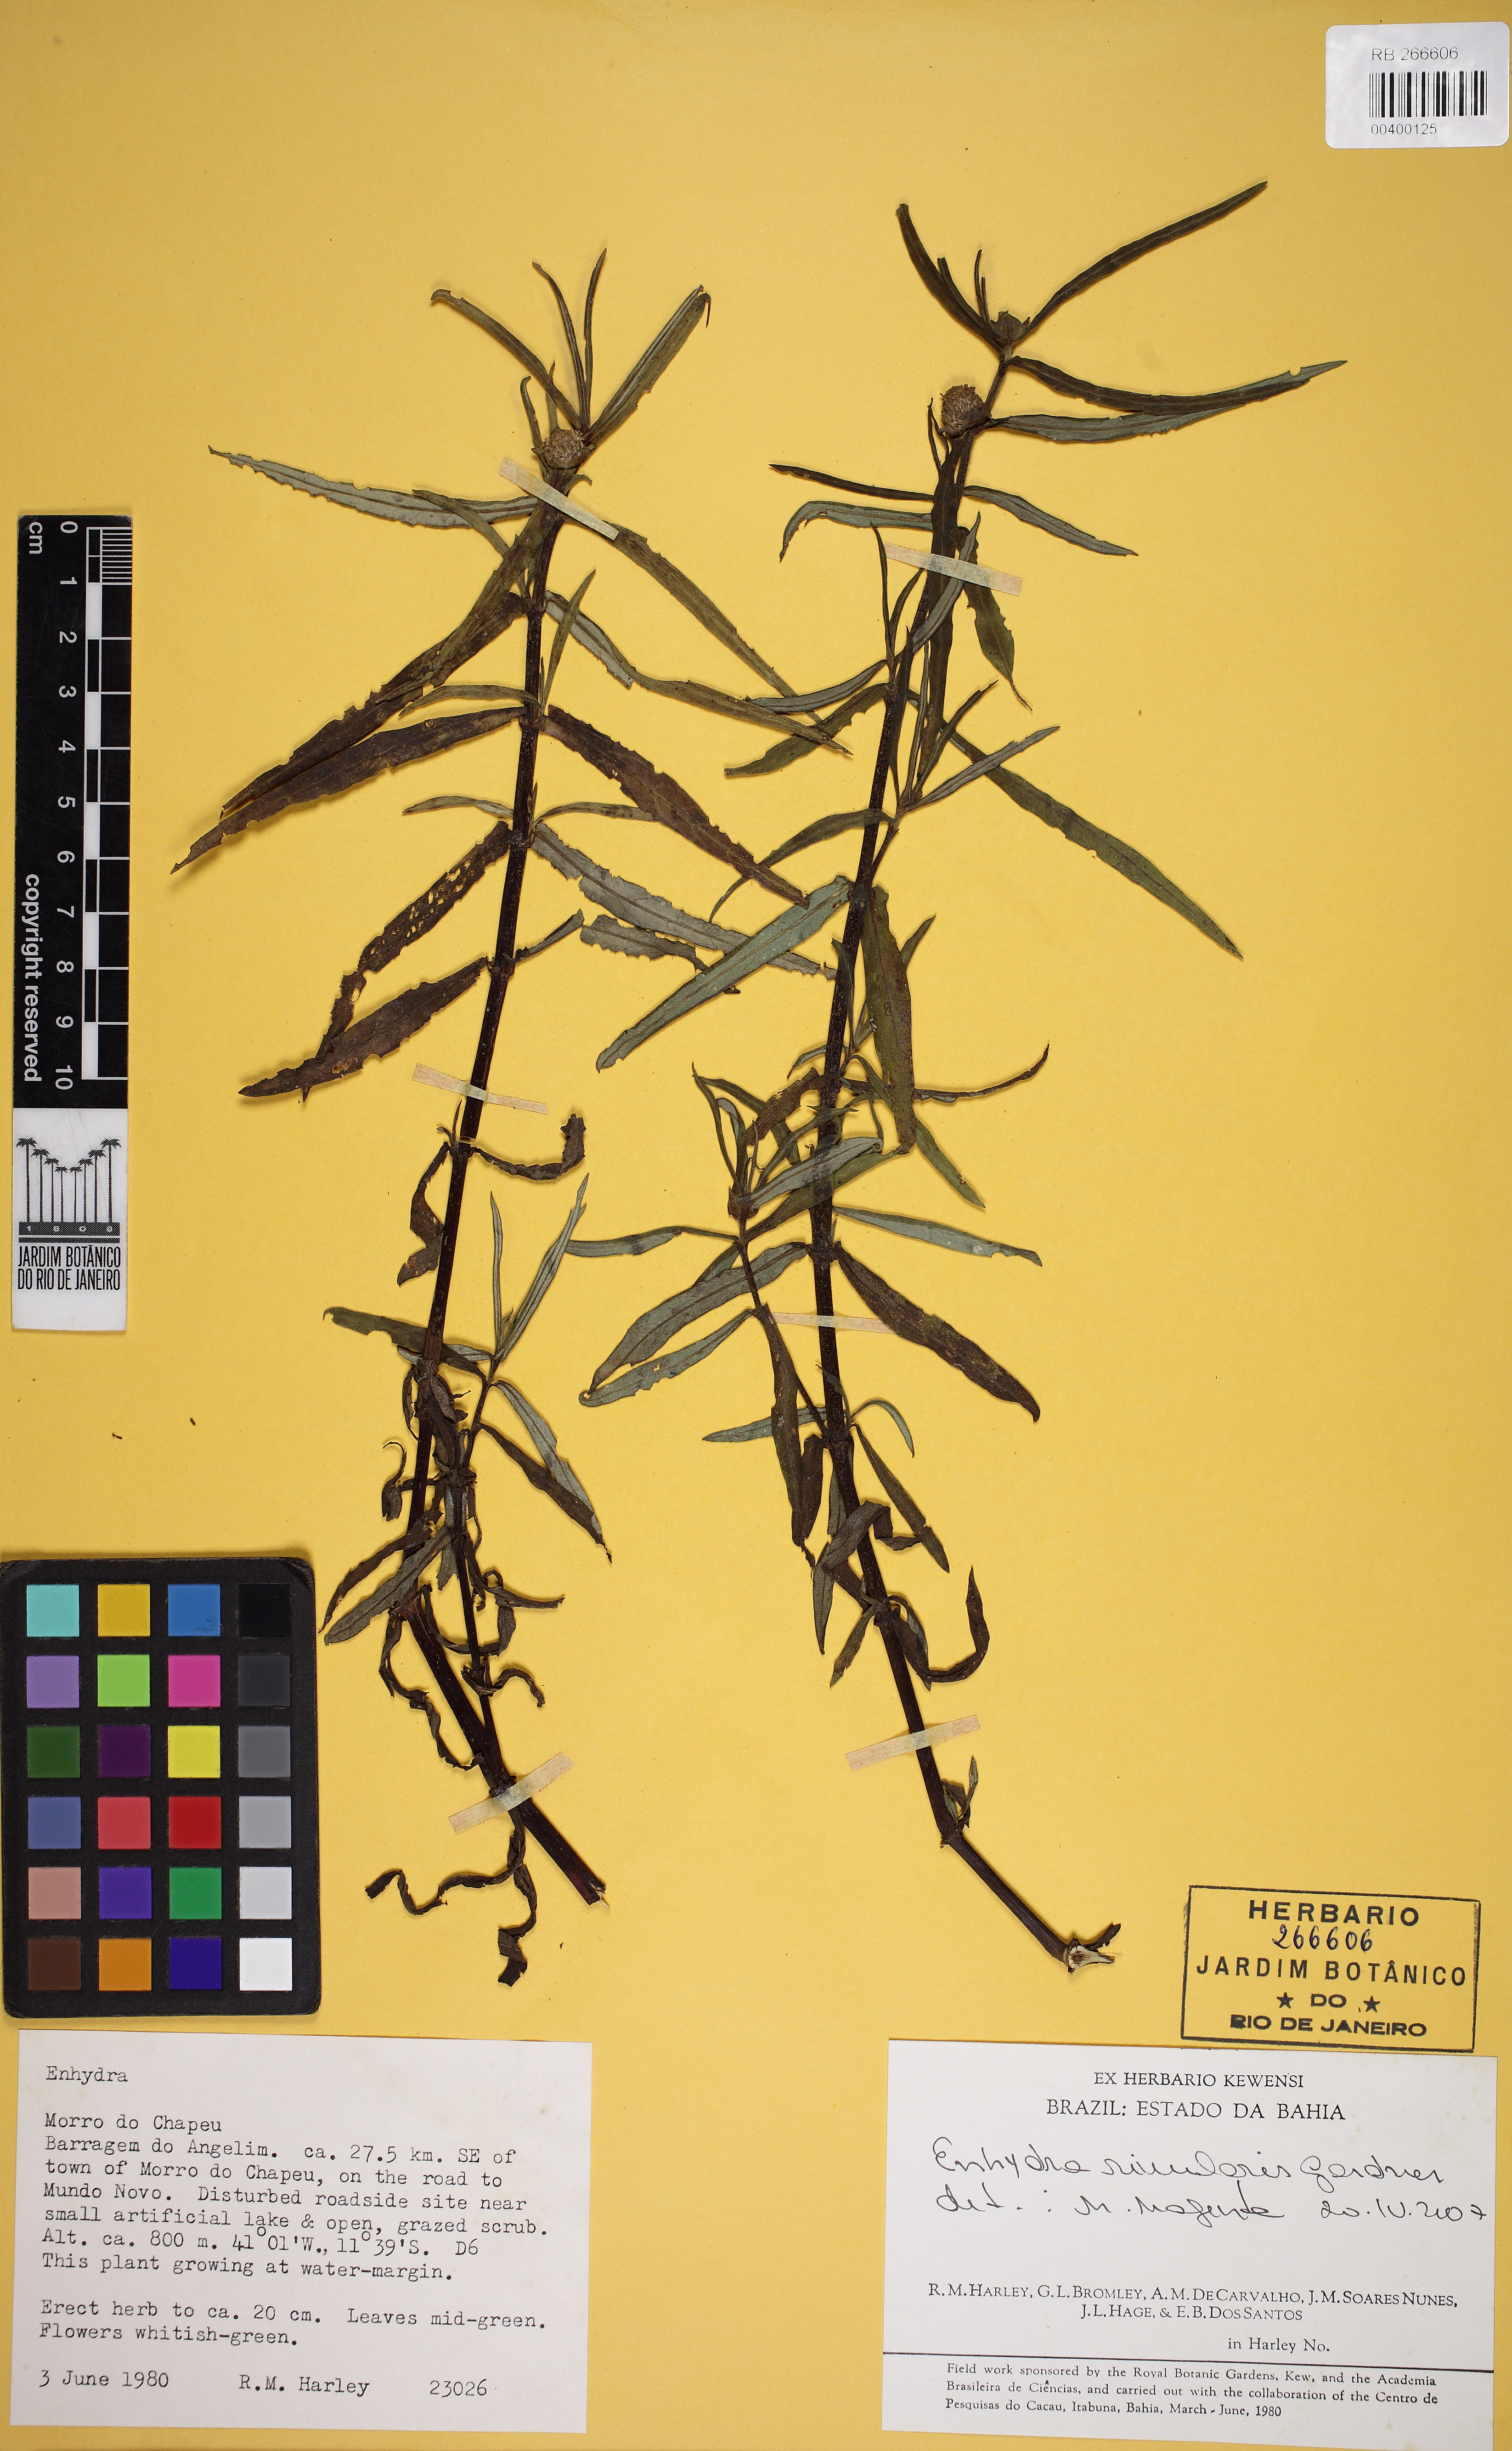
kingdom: Plantae
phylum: Tracheophyta
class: Magnoliopsida
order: Asterales
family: Asteraceae
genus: Enydra
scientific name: Enydra radicans
